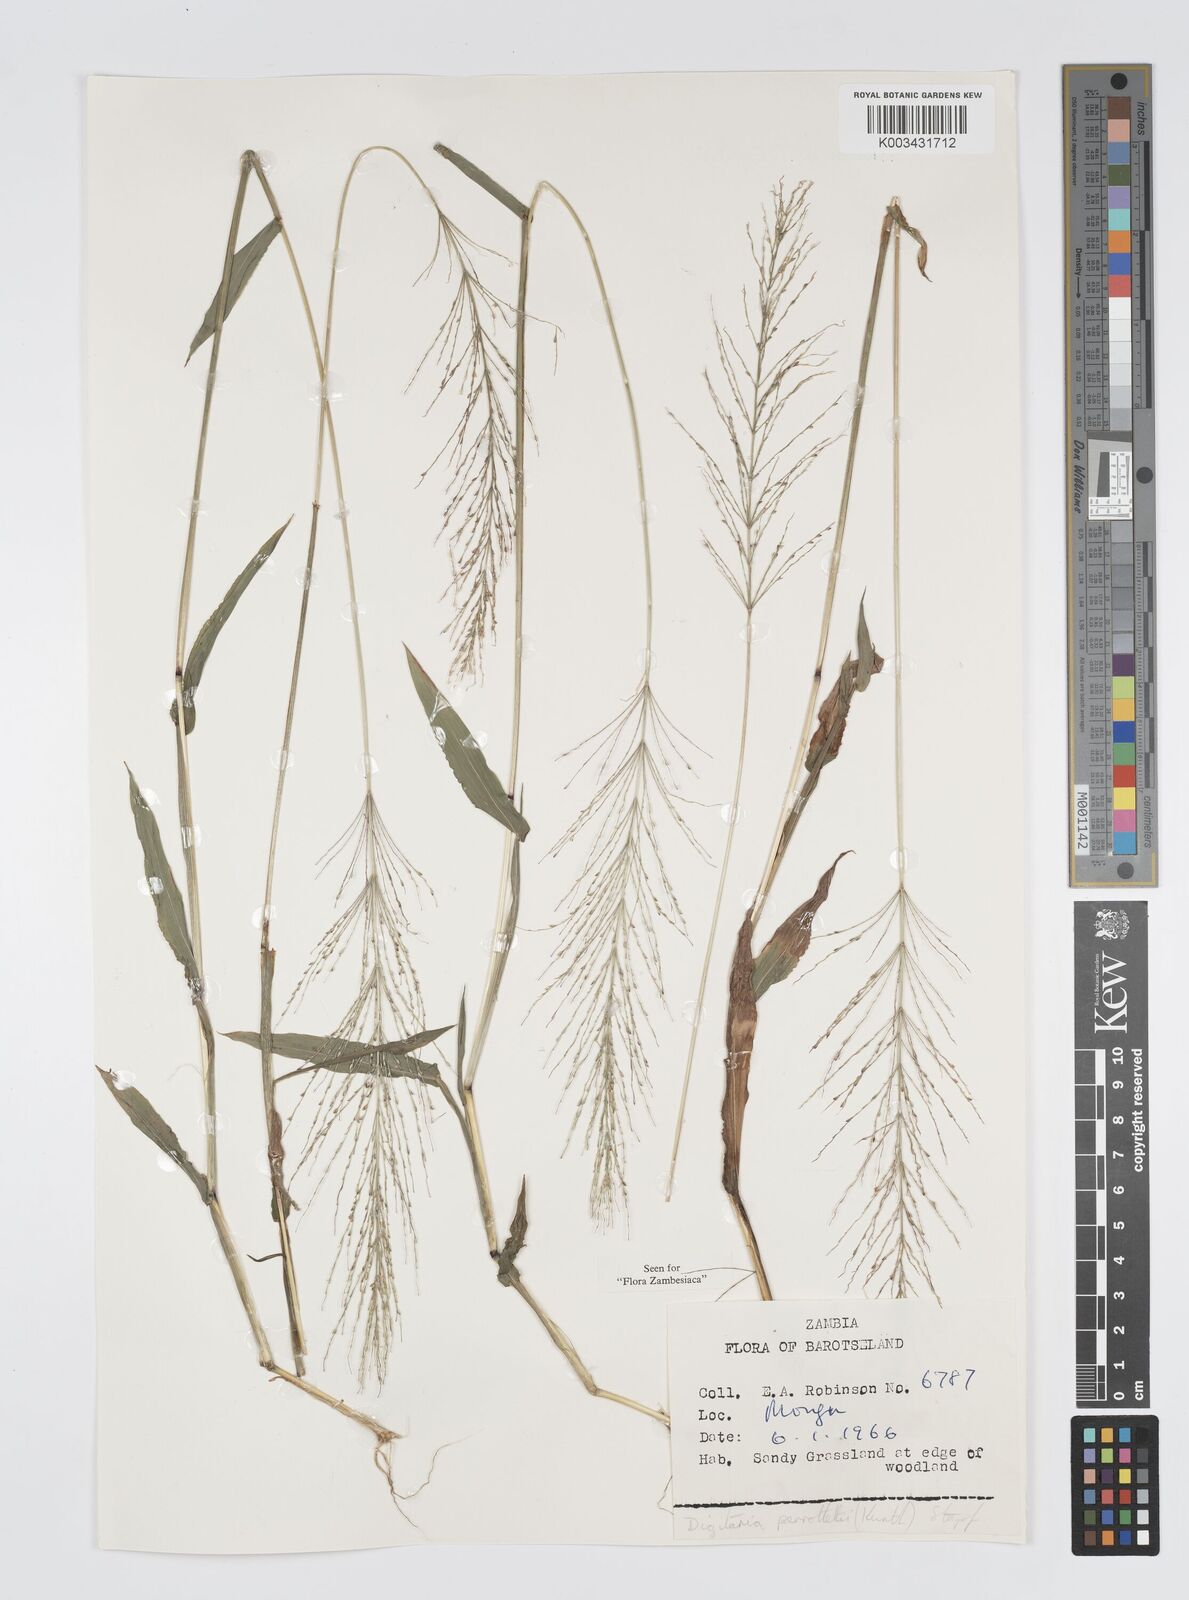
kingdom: Plantae
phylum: Tracheophyta
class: Liliopsida
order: Poales
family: Poaceae
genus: Digitaria
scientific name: Digitaria perrottetii
